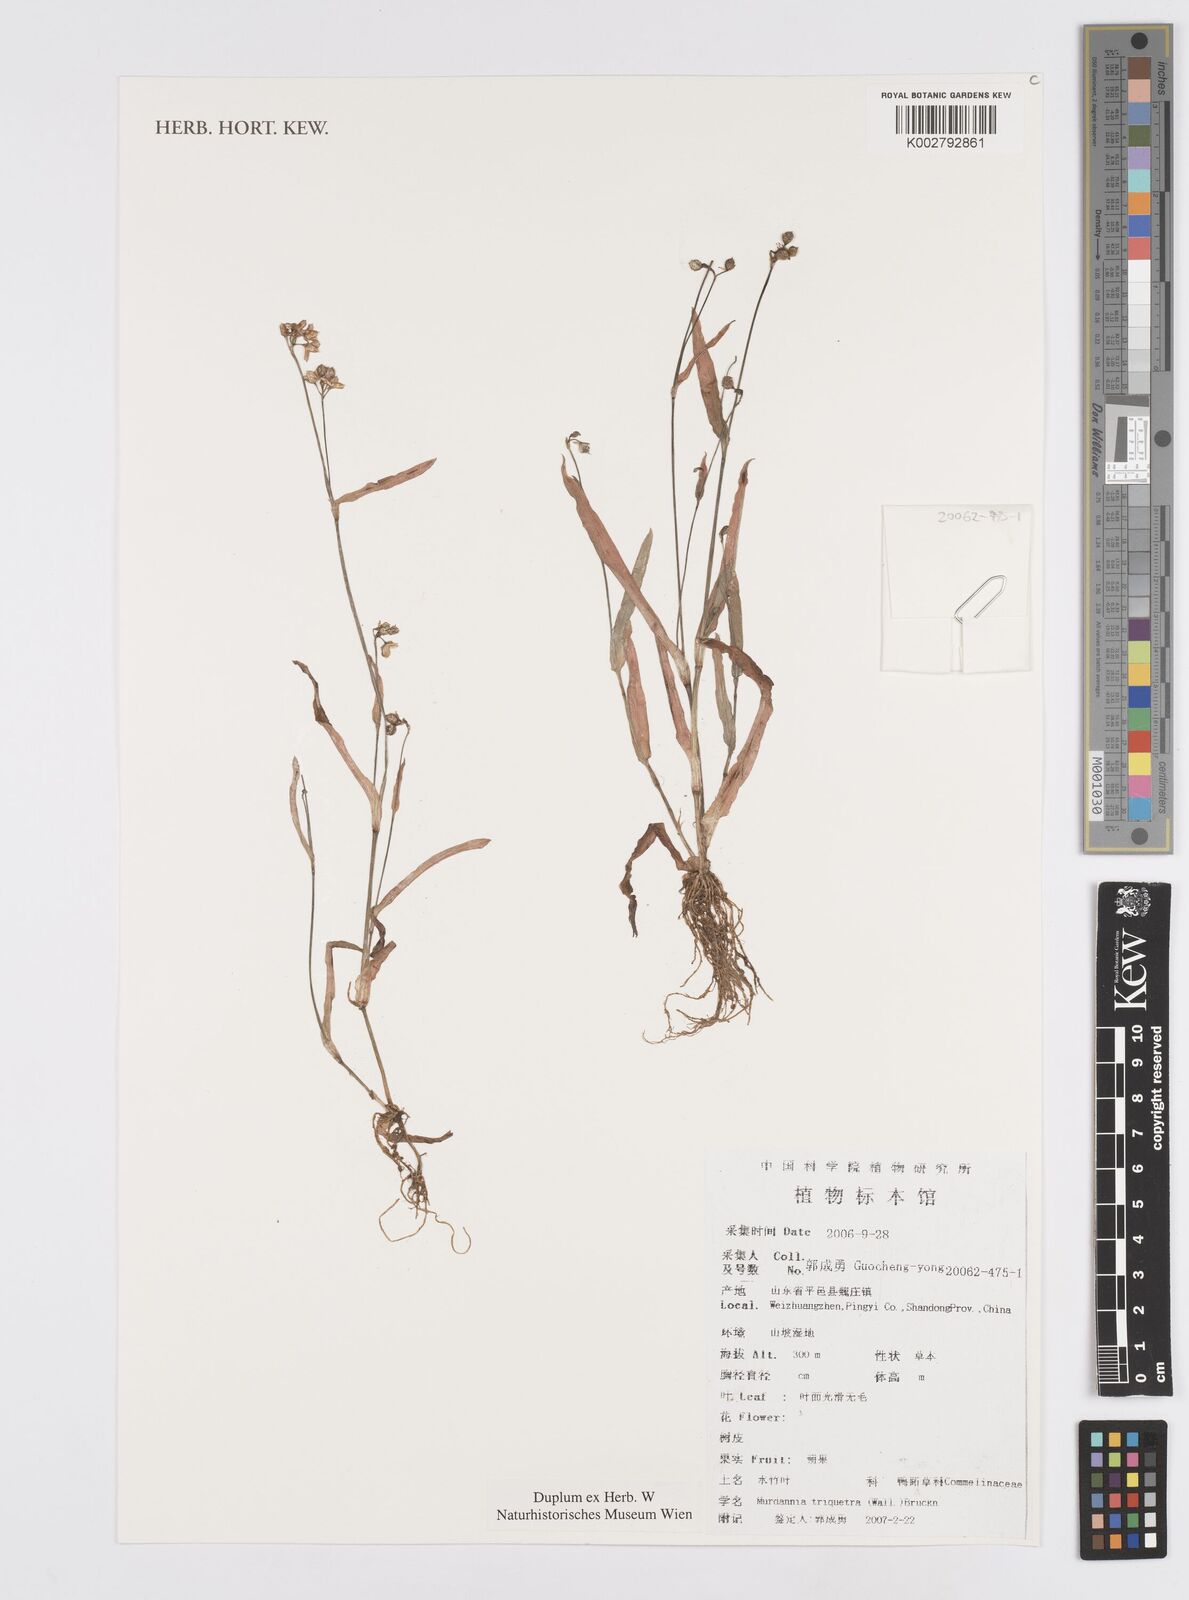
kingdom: Plantae
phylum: Tracheophyta
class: Liliopsida
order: Commelinales
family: Commelinaceae
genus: Murdannia
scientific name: Murdannia triquetra
